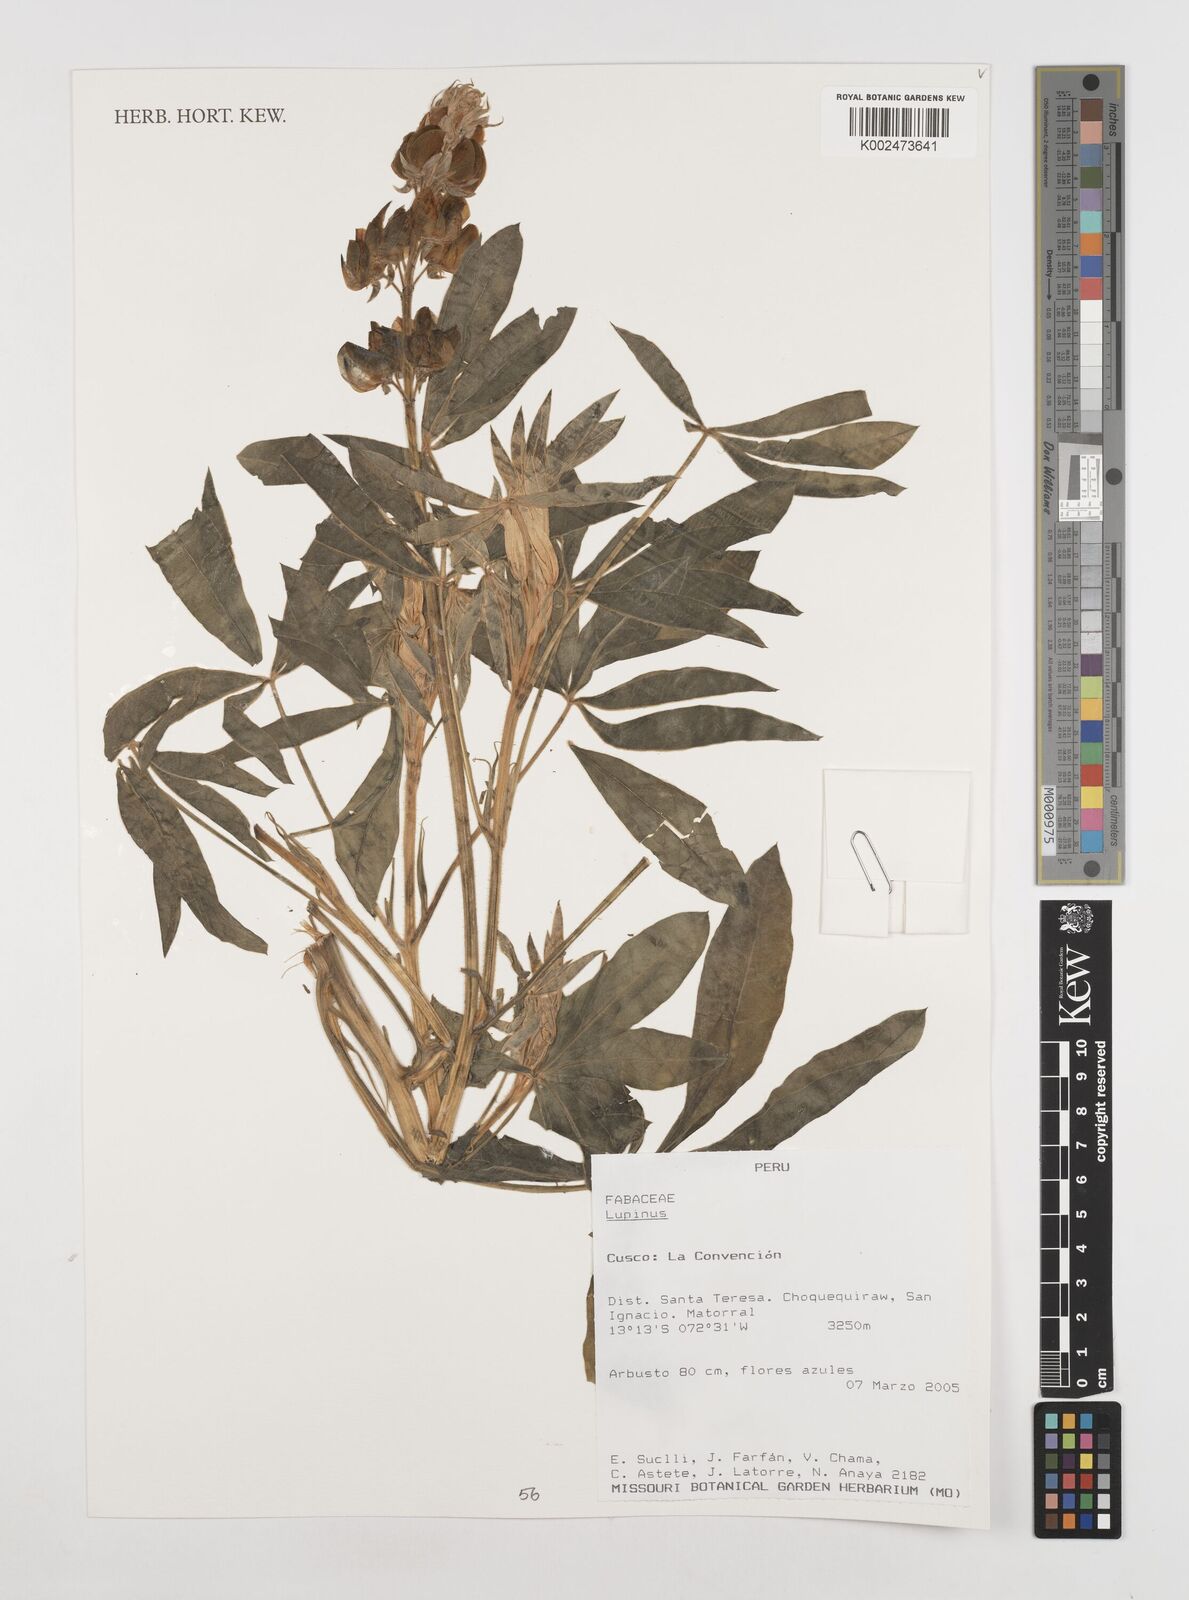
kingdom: Plantae
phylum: Tracheophyta
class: Magnoliopsida
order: Fabales
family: Fabaceae
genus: Lupinus
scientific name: Lupinus
